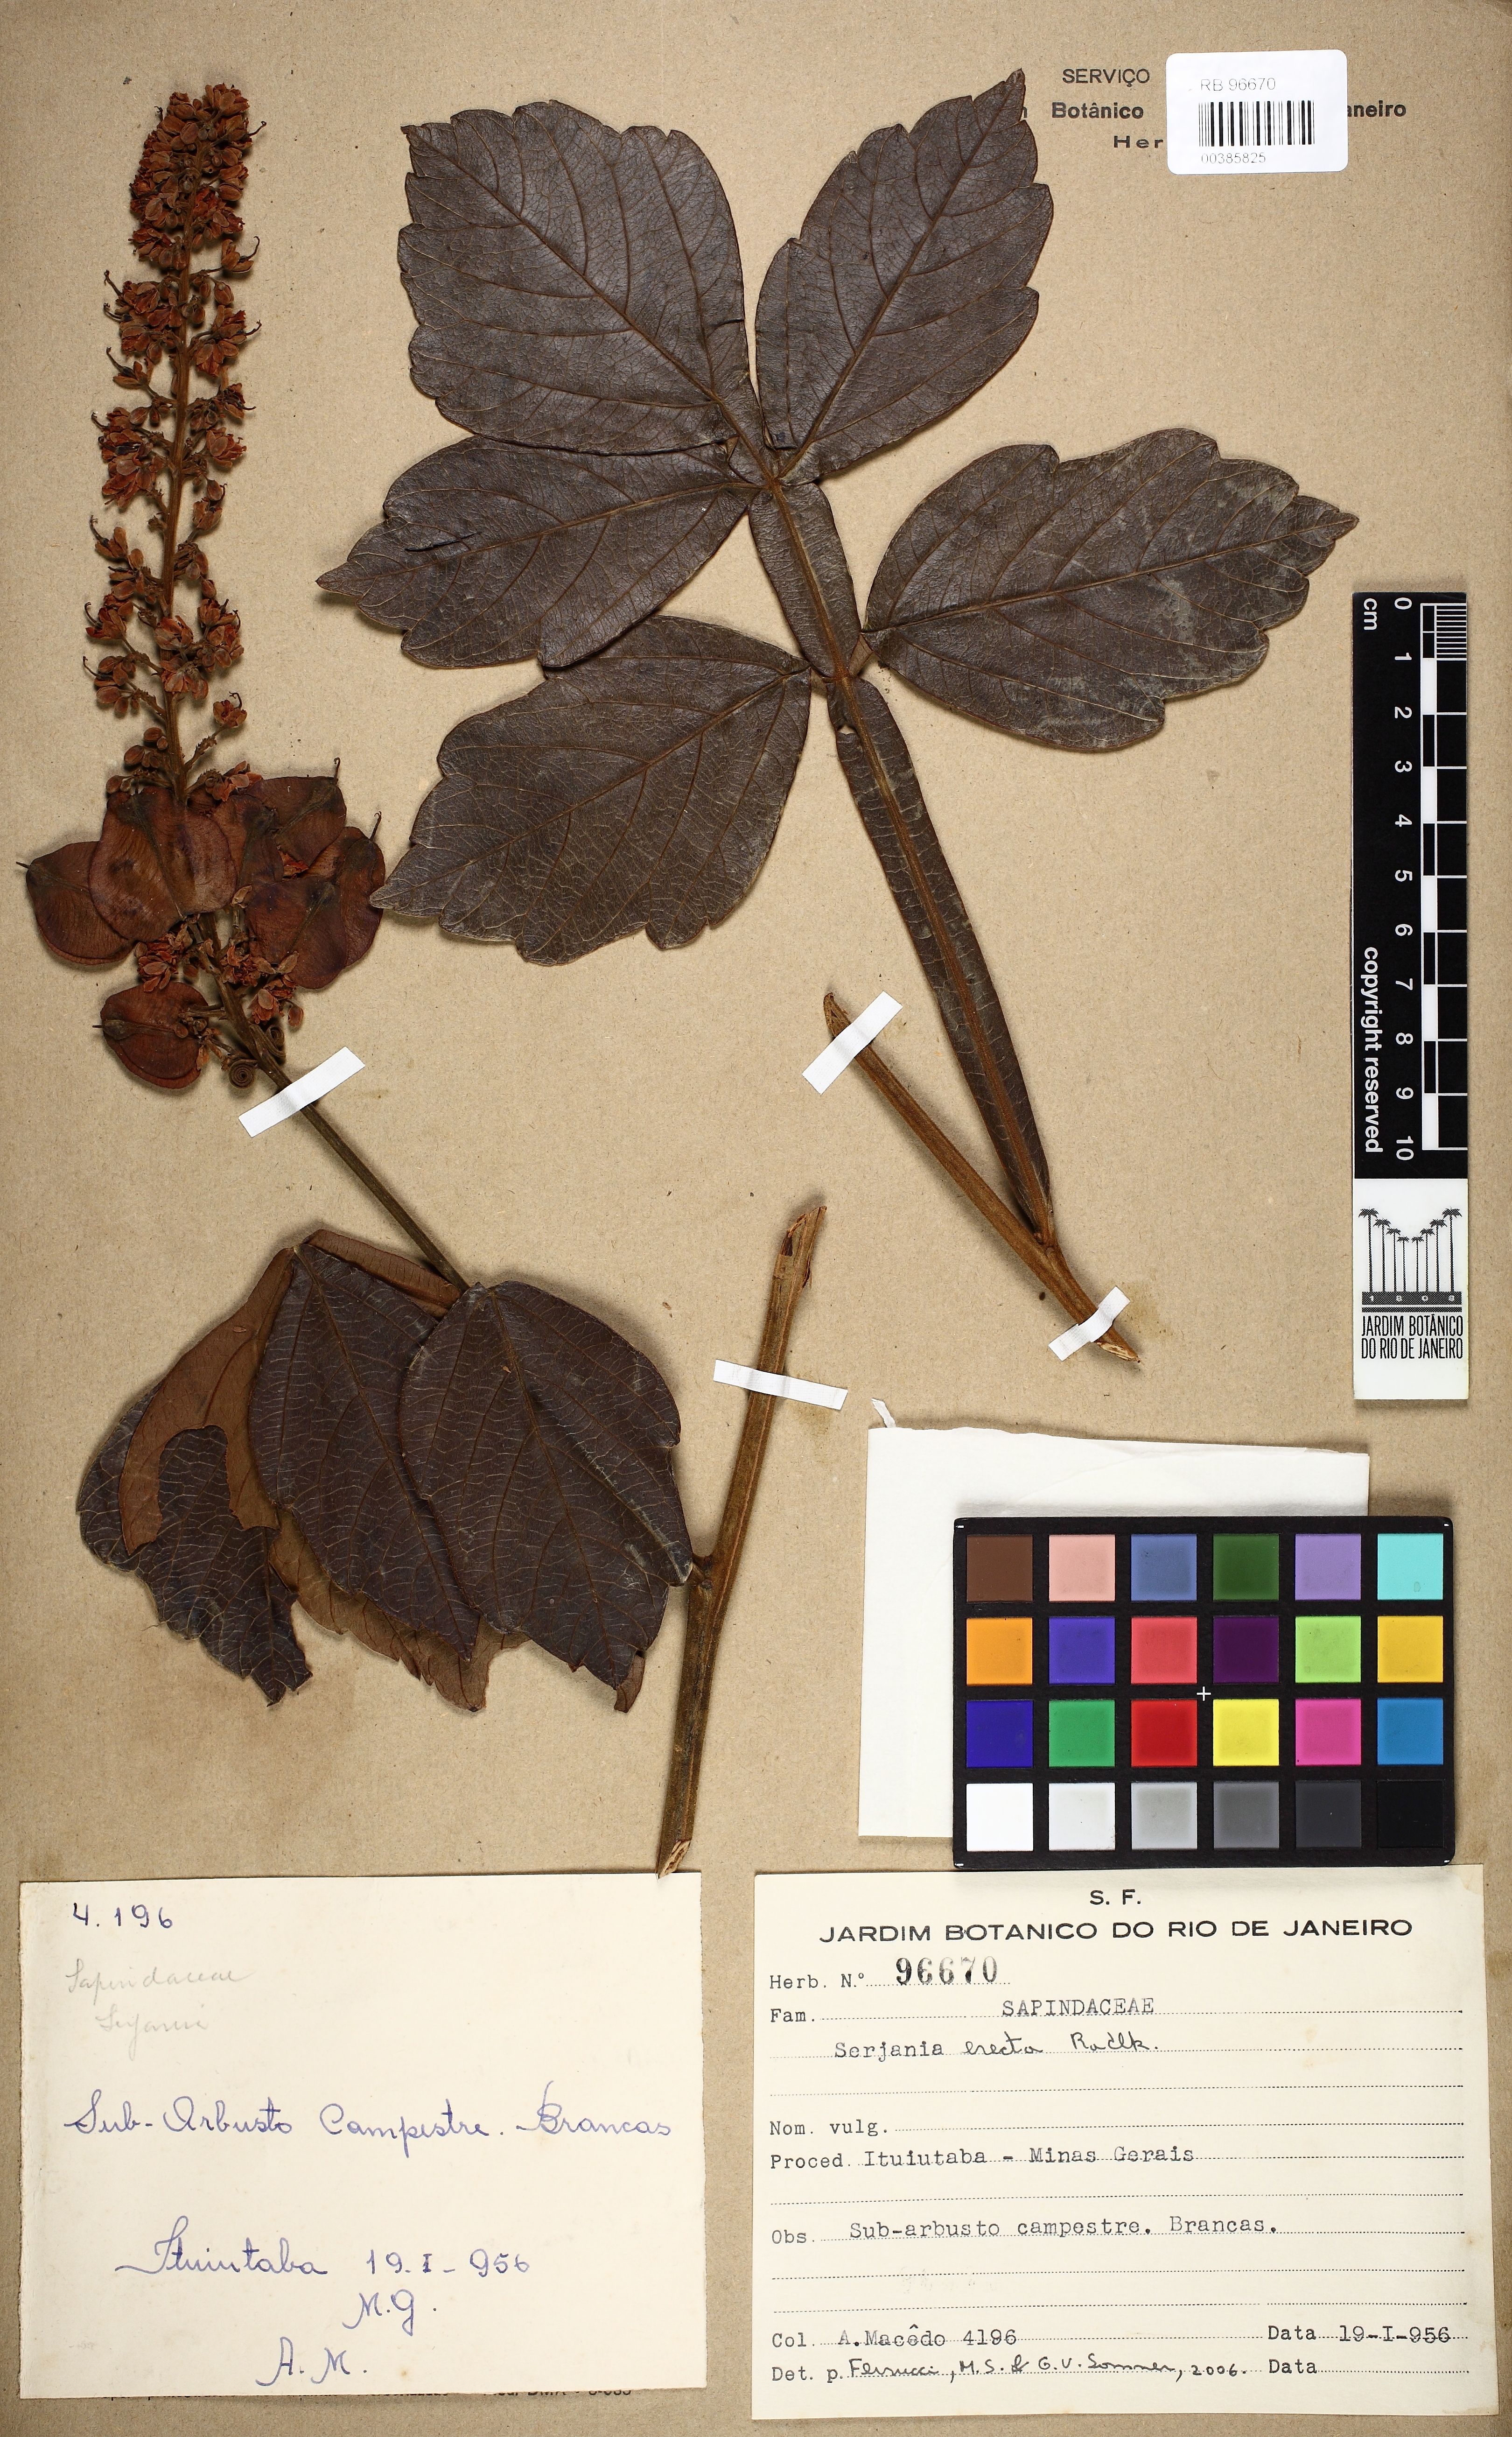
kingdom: Plantae
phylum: Tracheophyta
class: Magnoliopsida
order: Sapindales
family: Sapindaceae
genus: Serjania
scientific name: Serjania erecta
